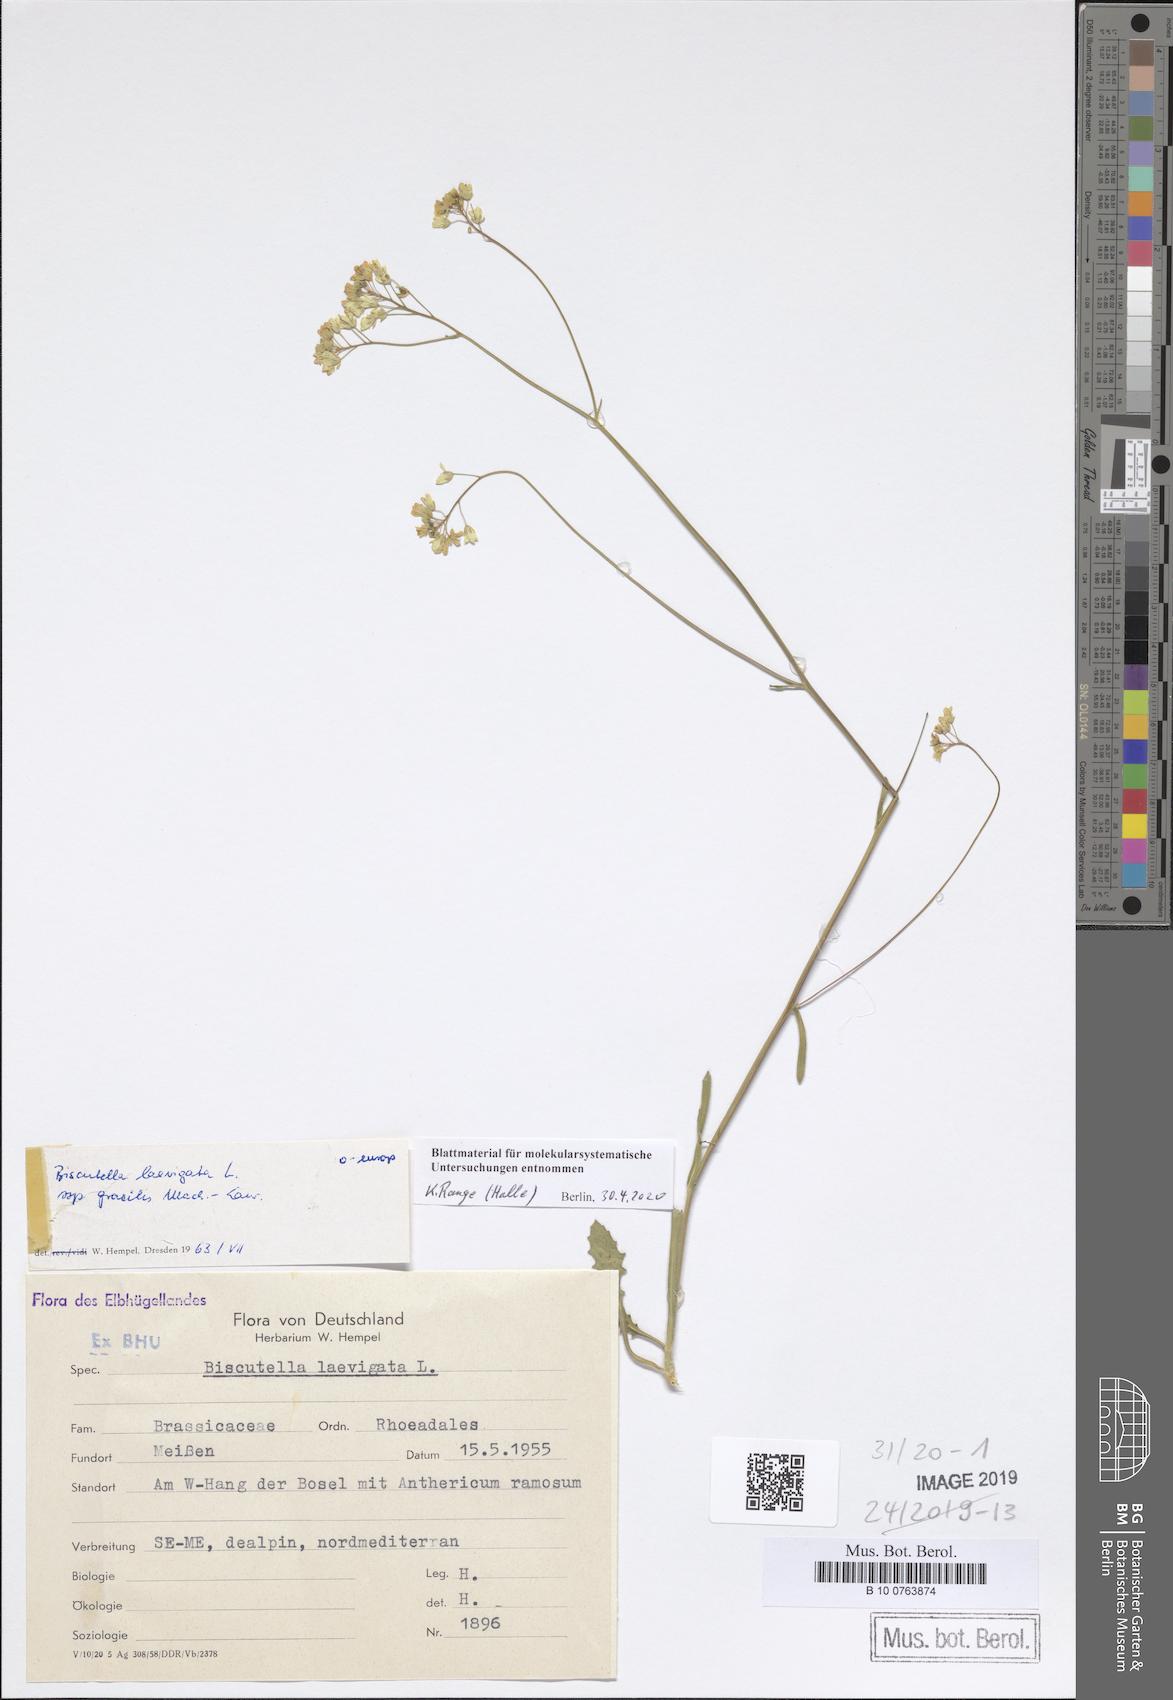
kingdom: Plantae
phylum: Tracheophyta
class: Magnoliopsida
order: Brassicales
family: Brassicaceae
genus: Biscutella
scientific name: Biscutella laevigata
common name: Buckler mustard
